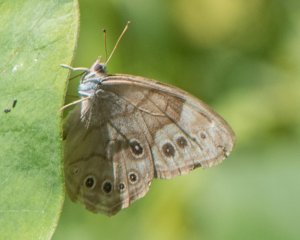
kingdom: Animalia
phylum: Arthropoda
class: Insecta
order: Lepidoptera
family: Nymphalidae
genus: Lethe
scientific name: Lethe anthedon
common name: Northern Pearly-Eye
